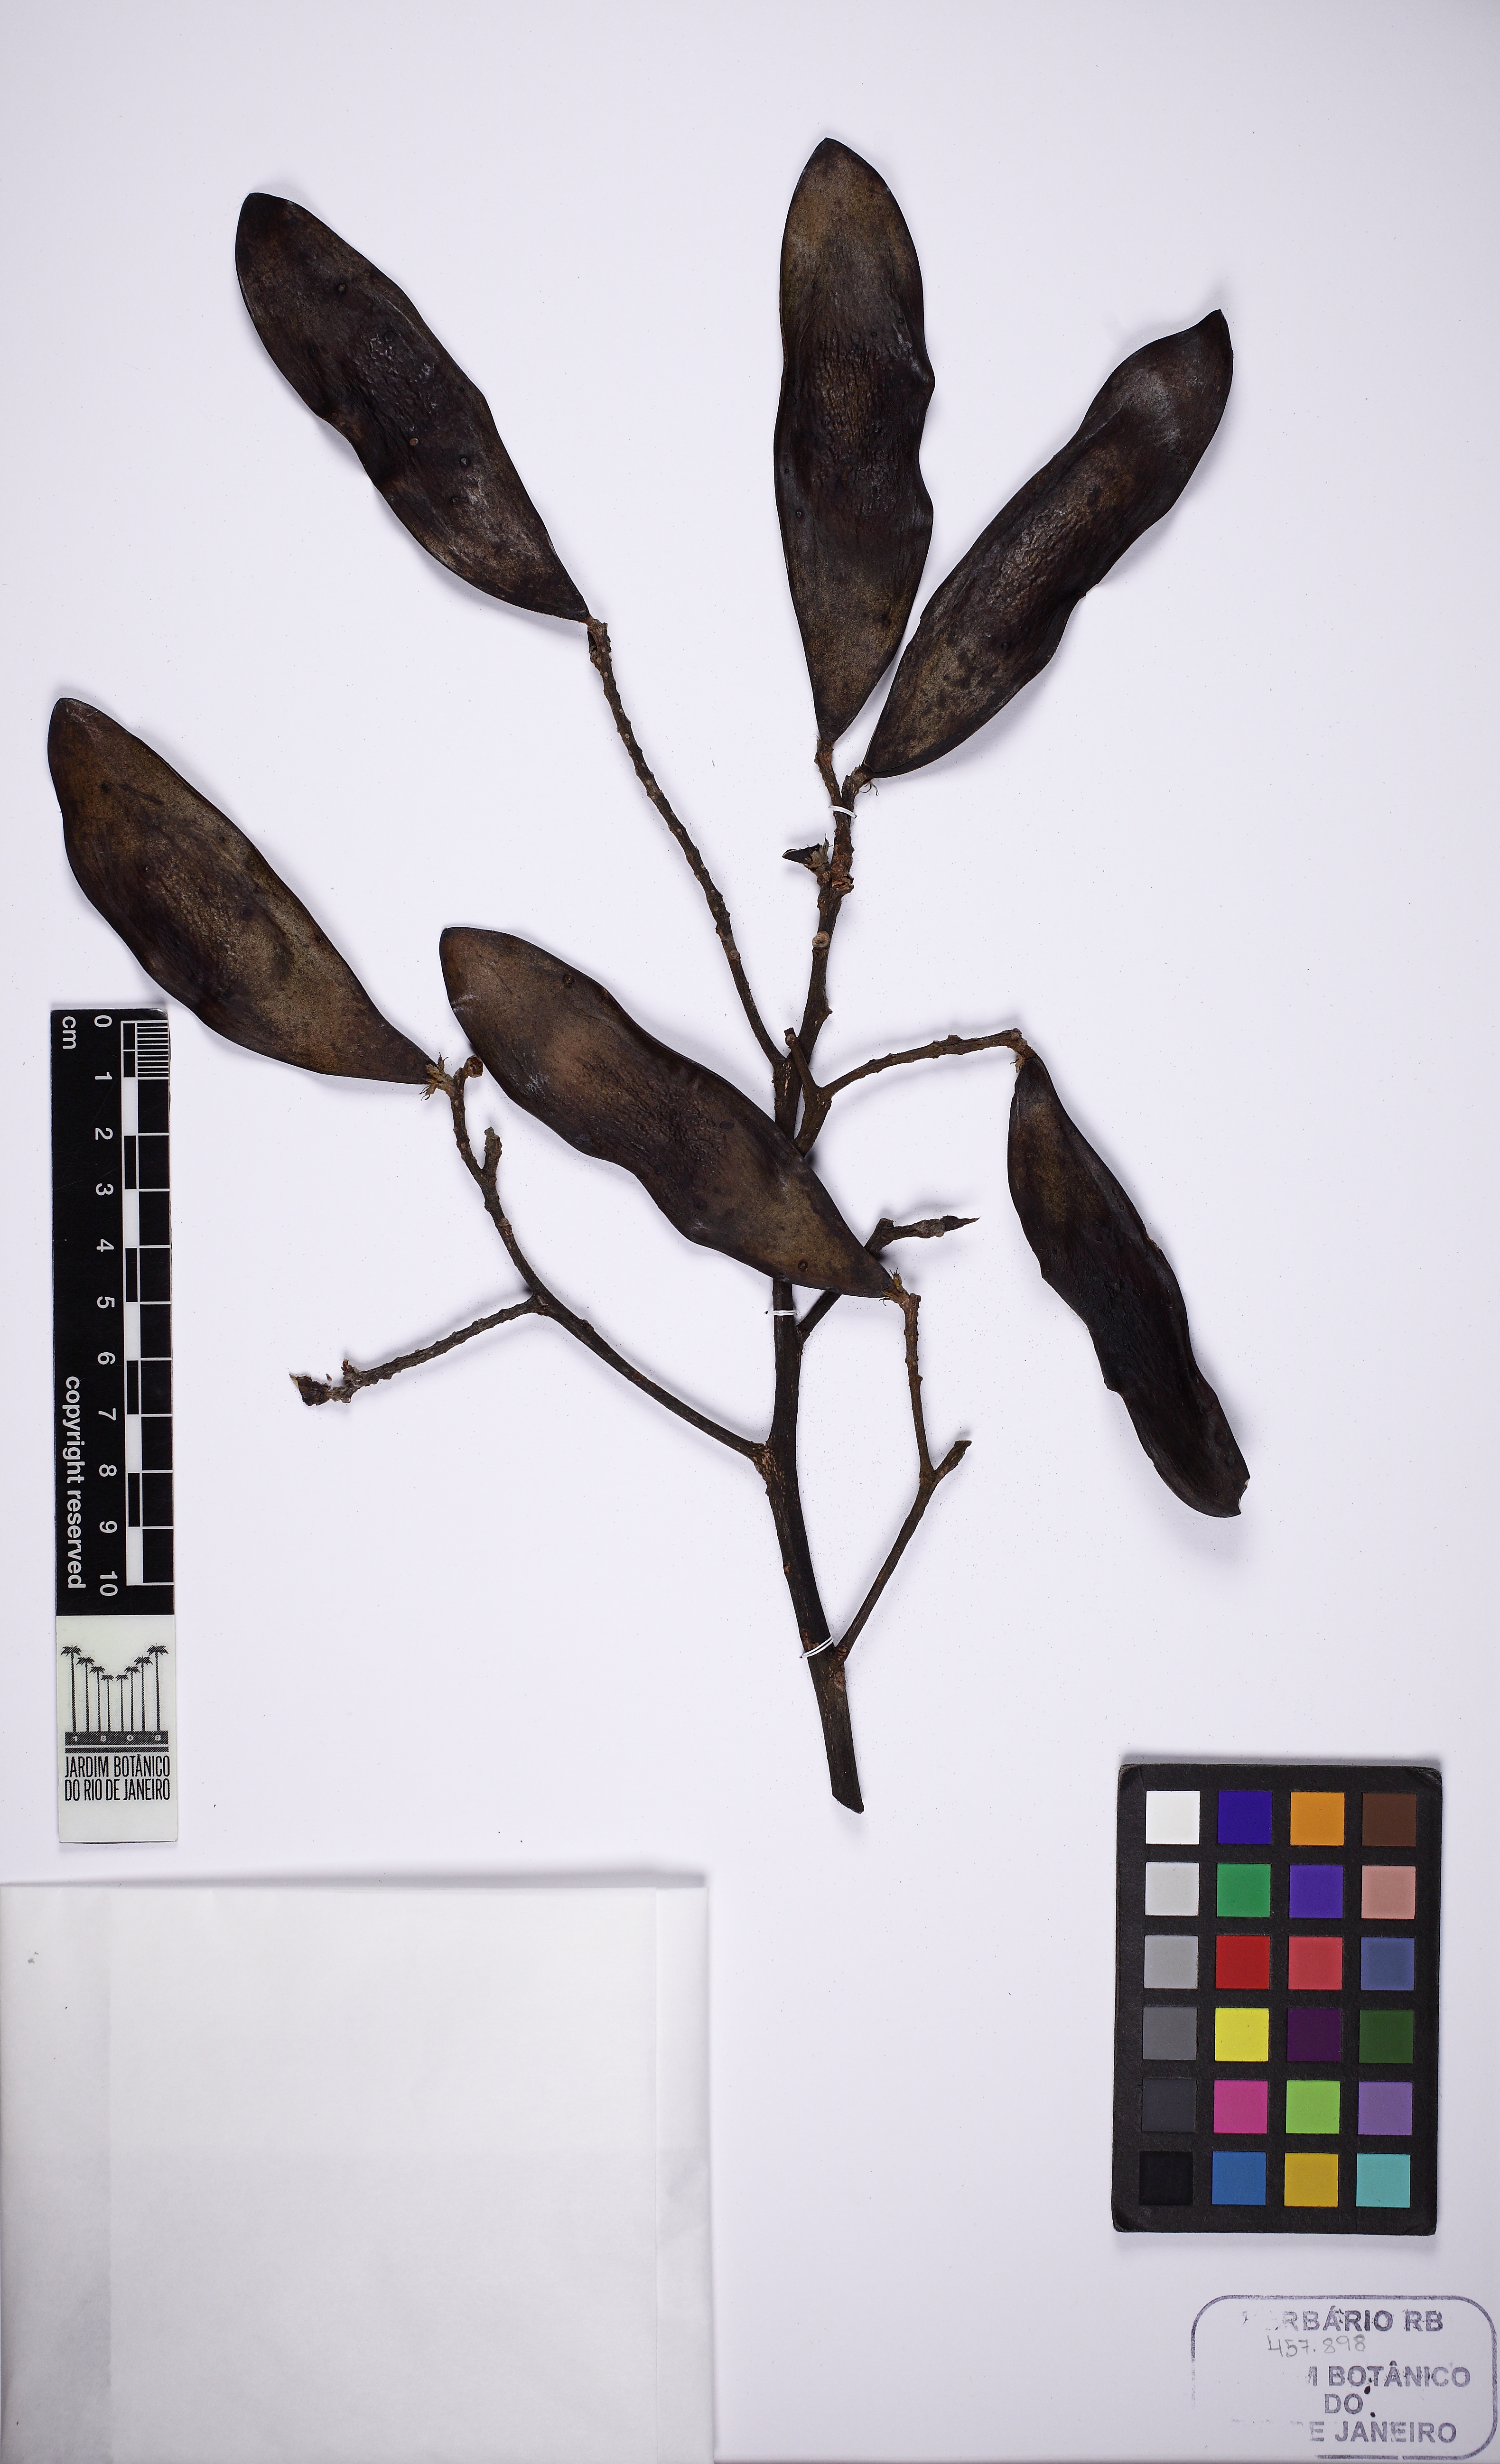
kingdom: Plantae
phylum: Tracheophyta
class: Magnoliopsida
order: Fabales
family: Fabaceae
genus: Tachigali
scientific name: Tachigali densiflora
